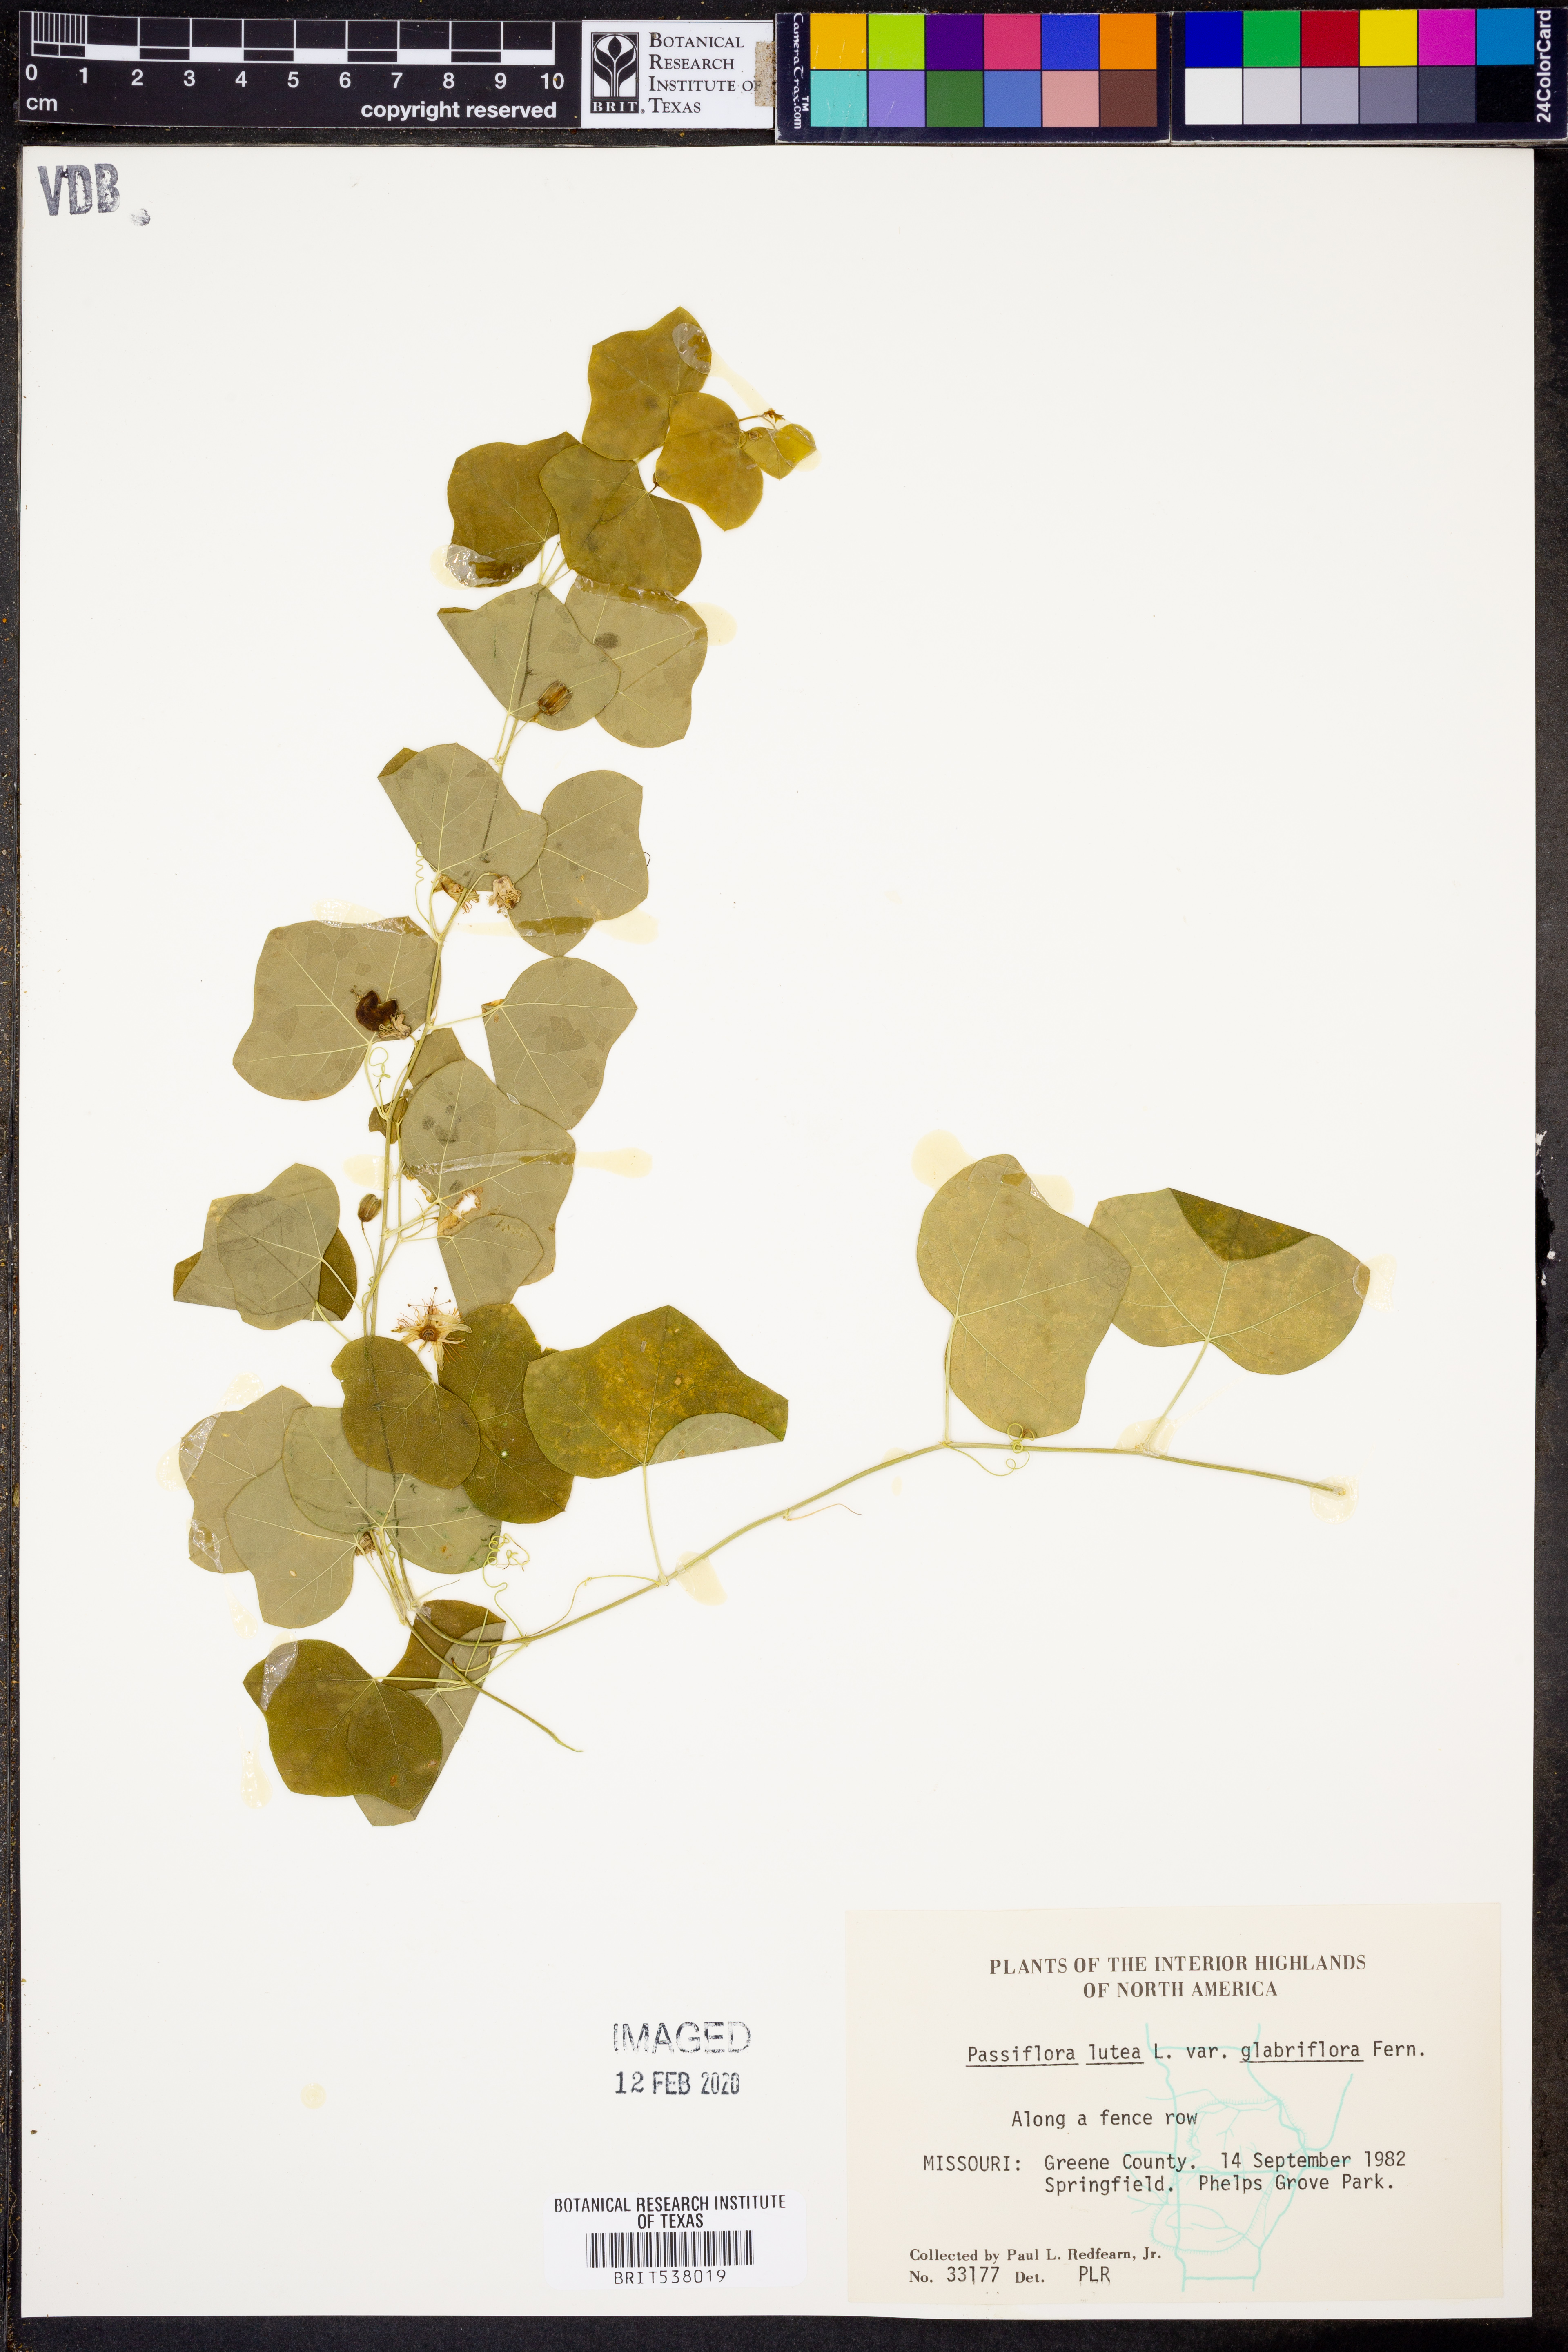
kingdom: Plantae
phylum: Tracheophyta
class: Magnoliopsida
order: Malpighiales
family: Passifloraceae
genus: Passiflora
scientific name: Passiflora lutea
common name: Yellow passionflower
